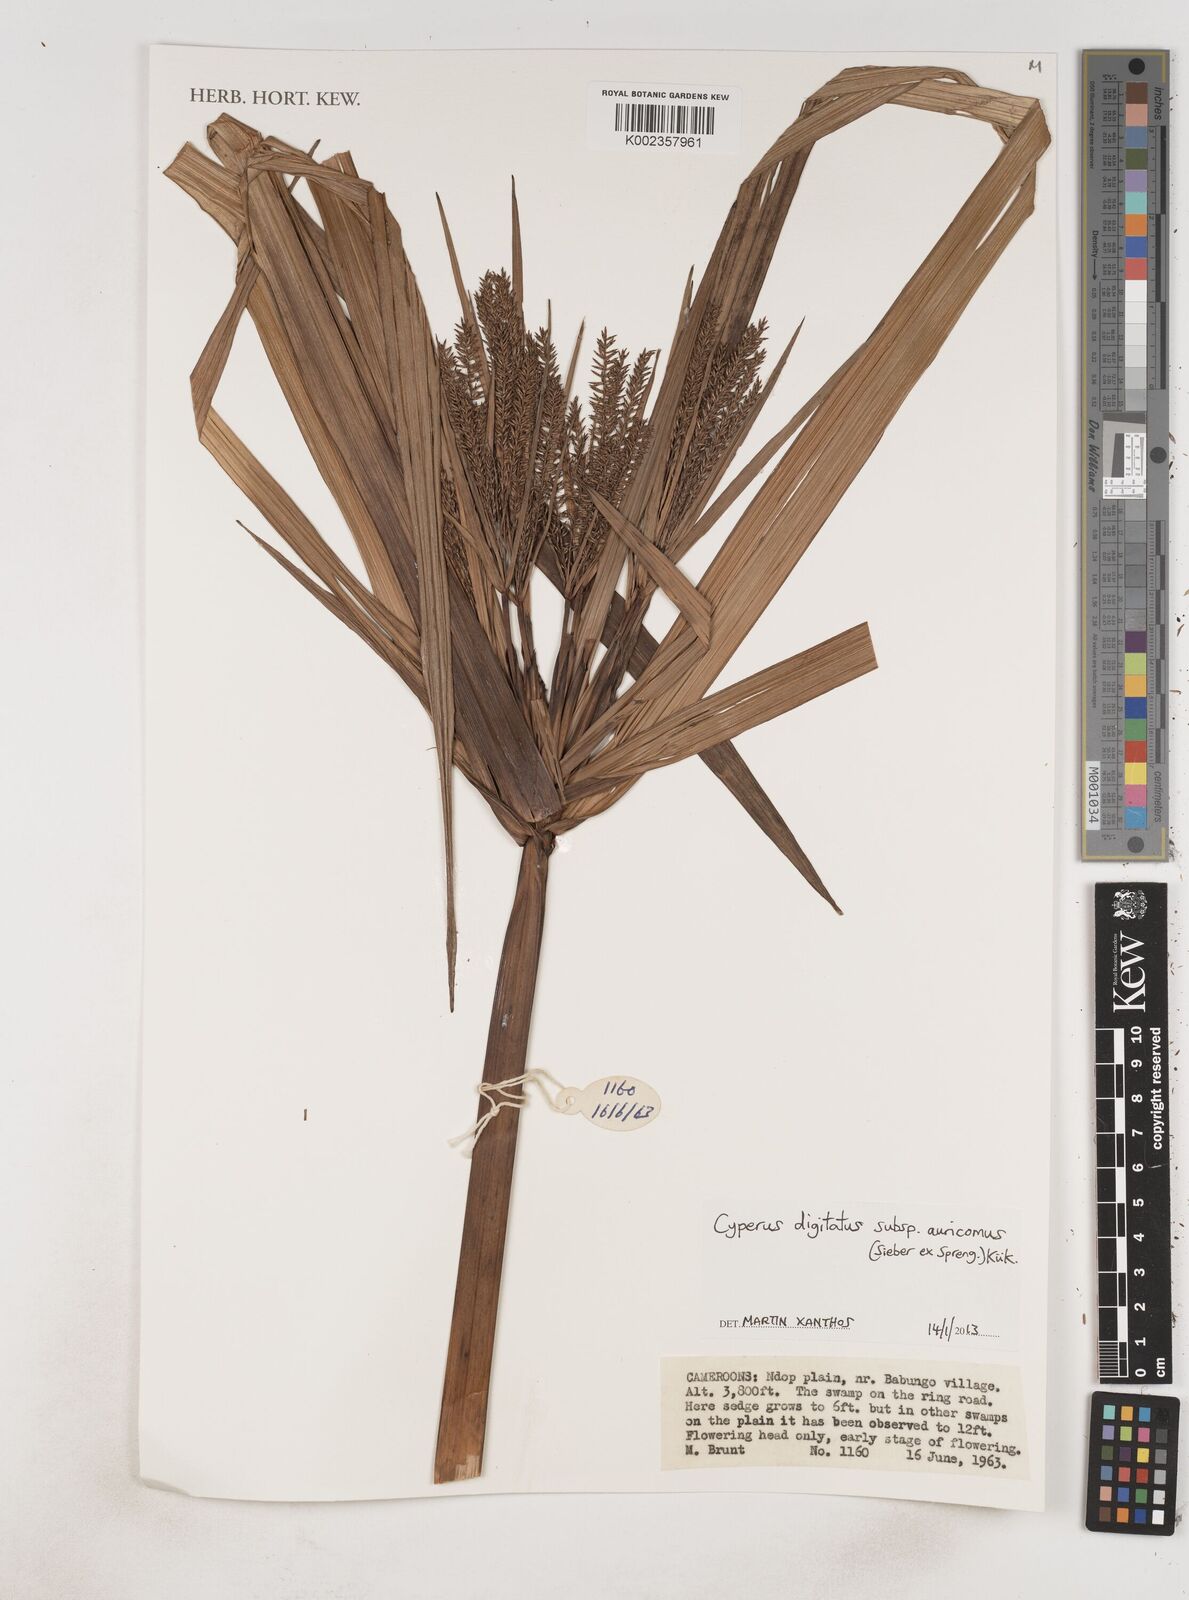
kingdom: Plantae
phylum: Tracheophyta
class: Liliopsida
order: Poales
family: Cyperaceae
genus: Cyperus
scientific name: Cyperus digitatus
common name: Finger flatsedge
